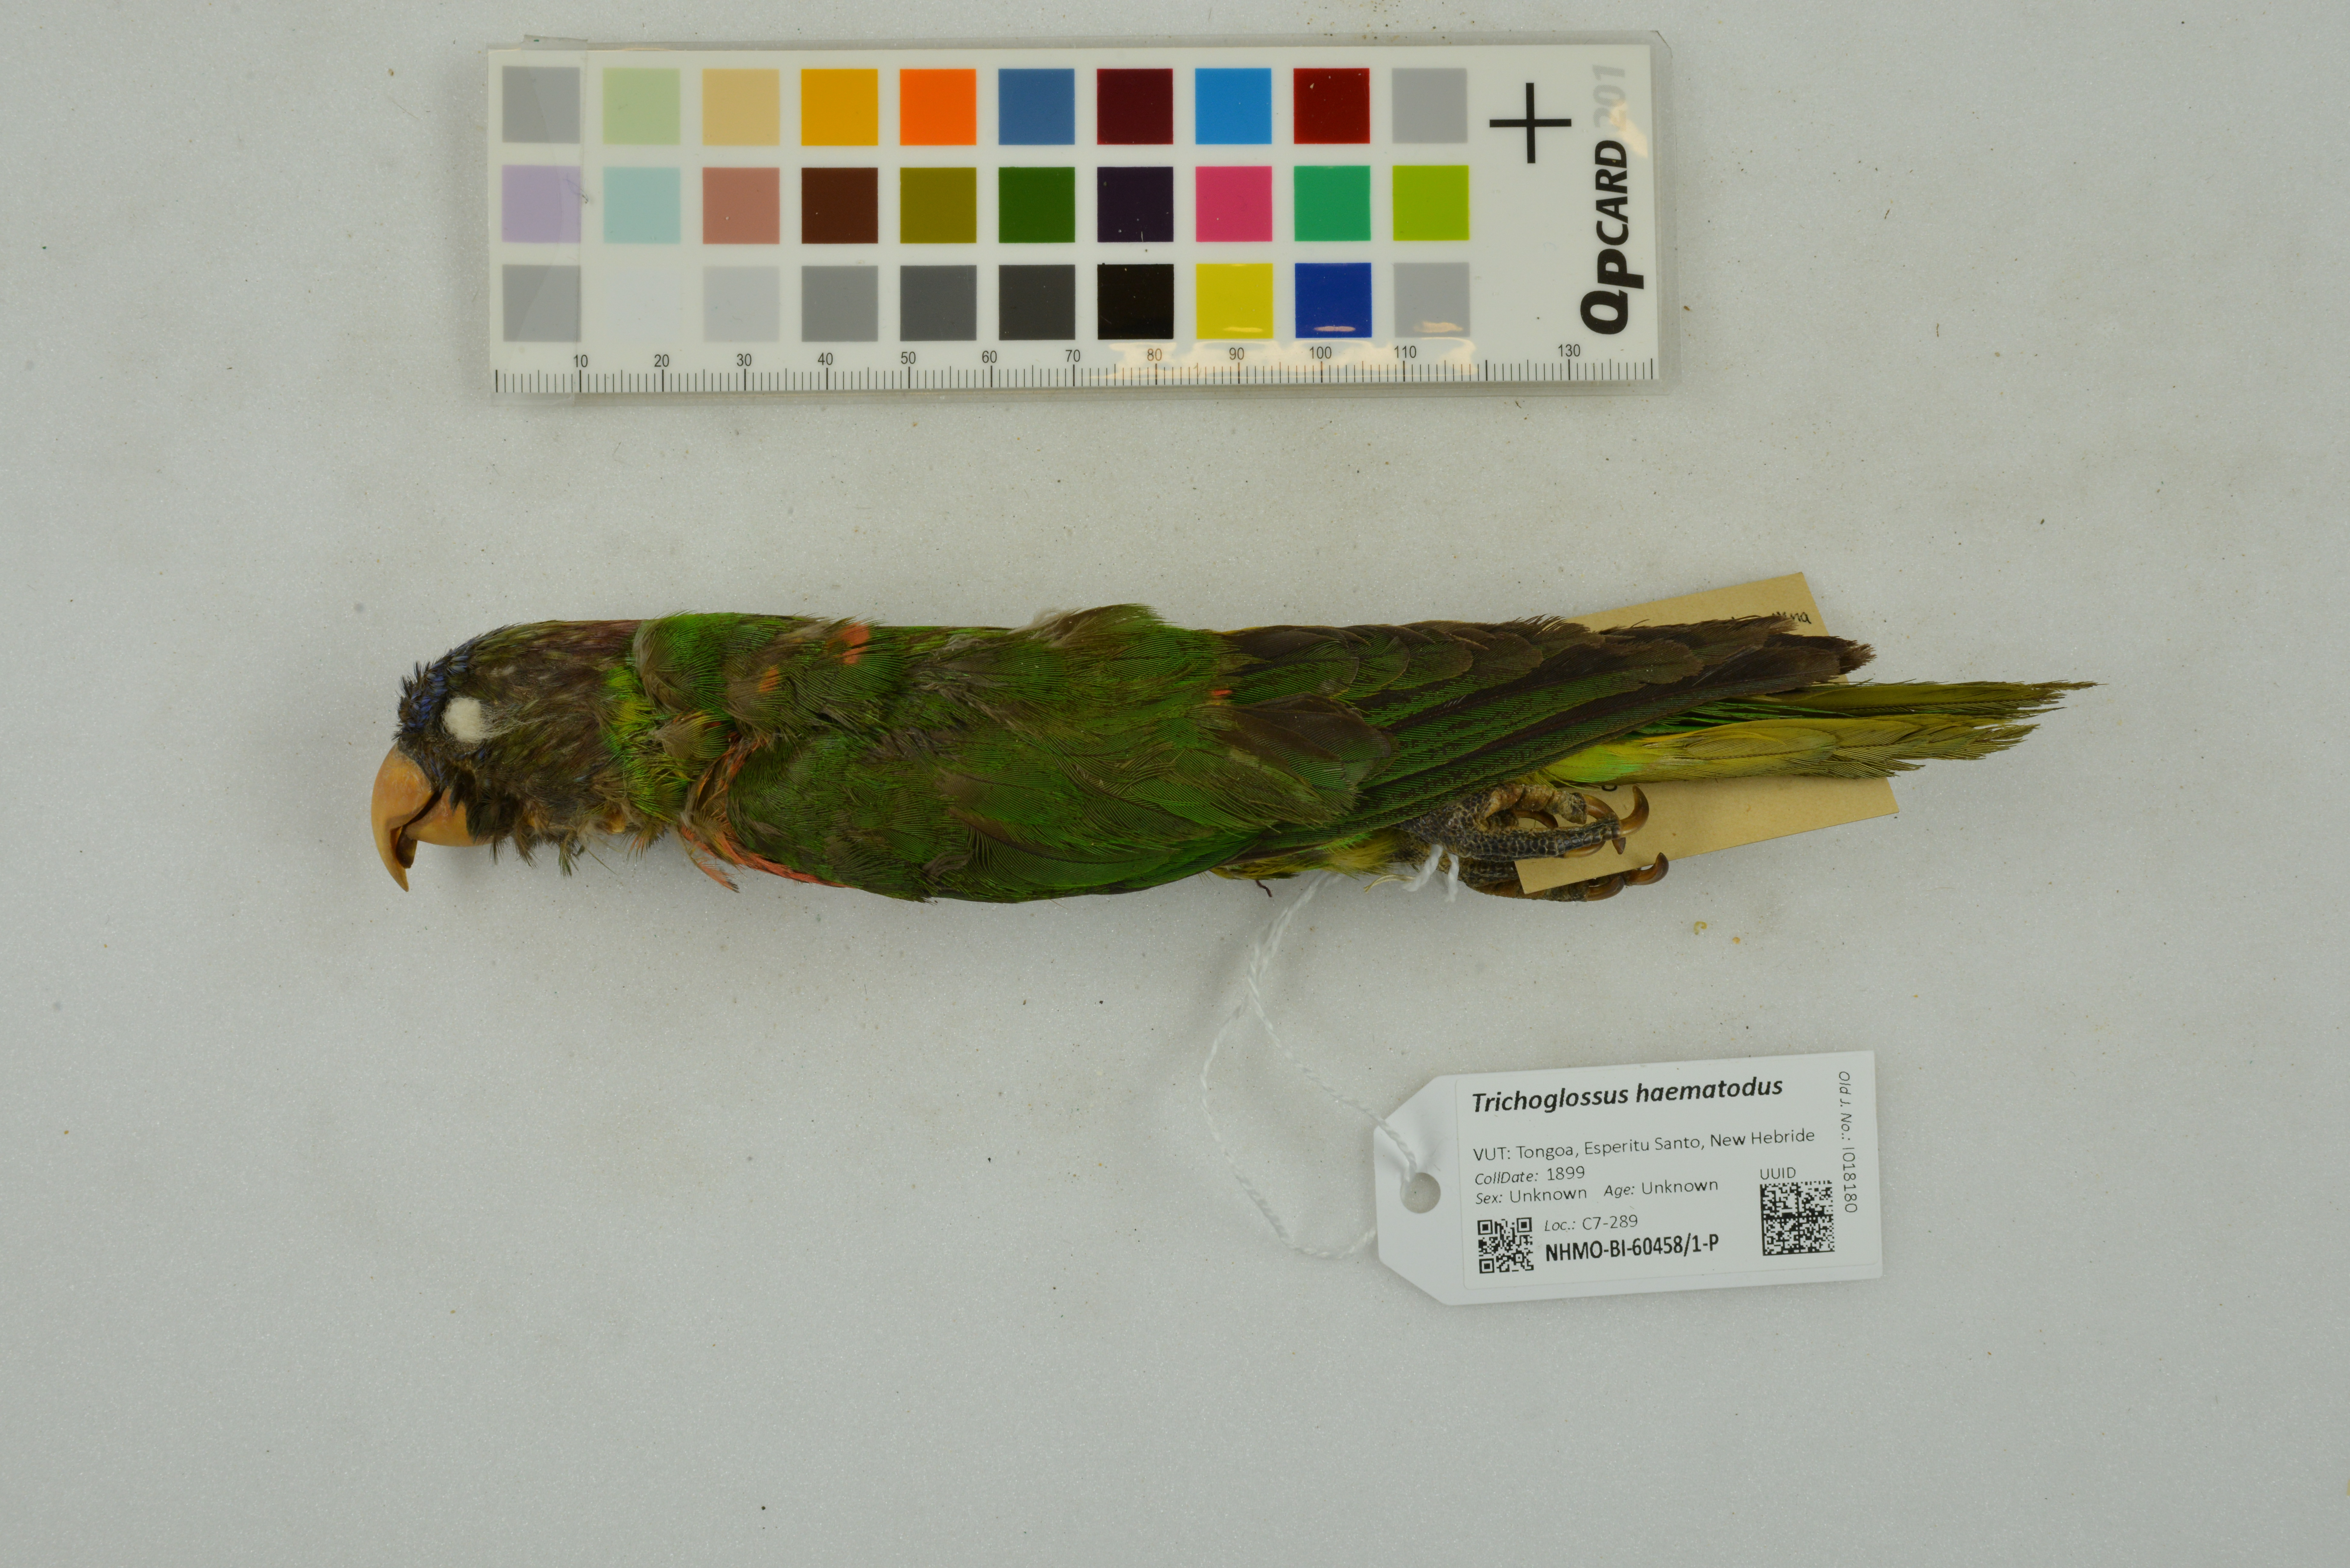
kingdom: Animalia
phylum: Chordata
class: Aves
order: Psittaciformes
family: Psittacidae
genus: Trichoglossus
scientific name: Trichoglossus haematodus
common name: Coconut lorikeet
